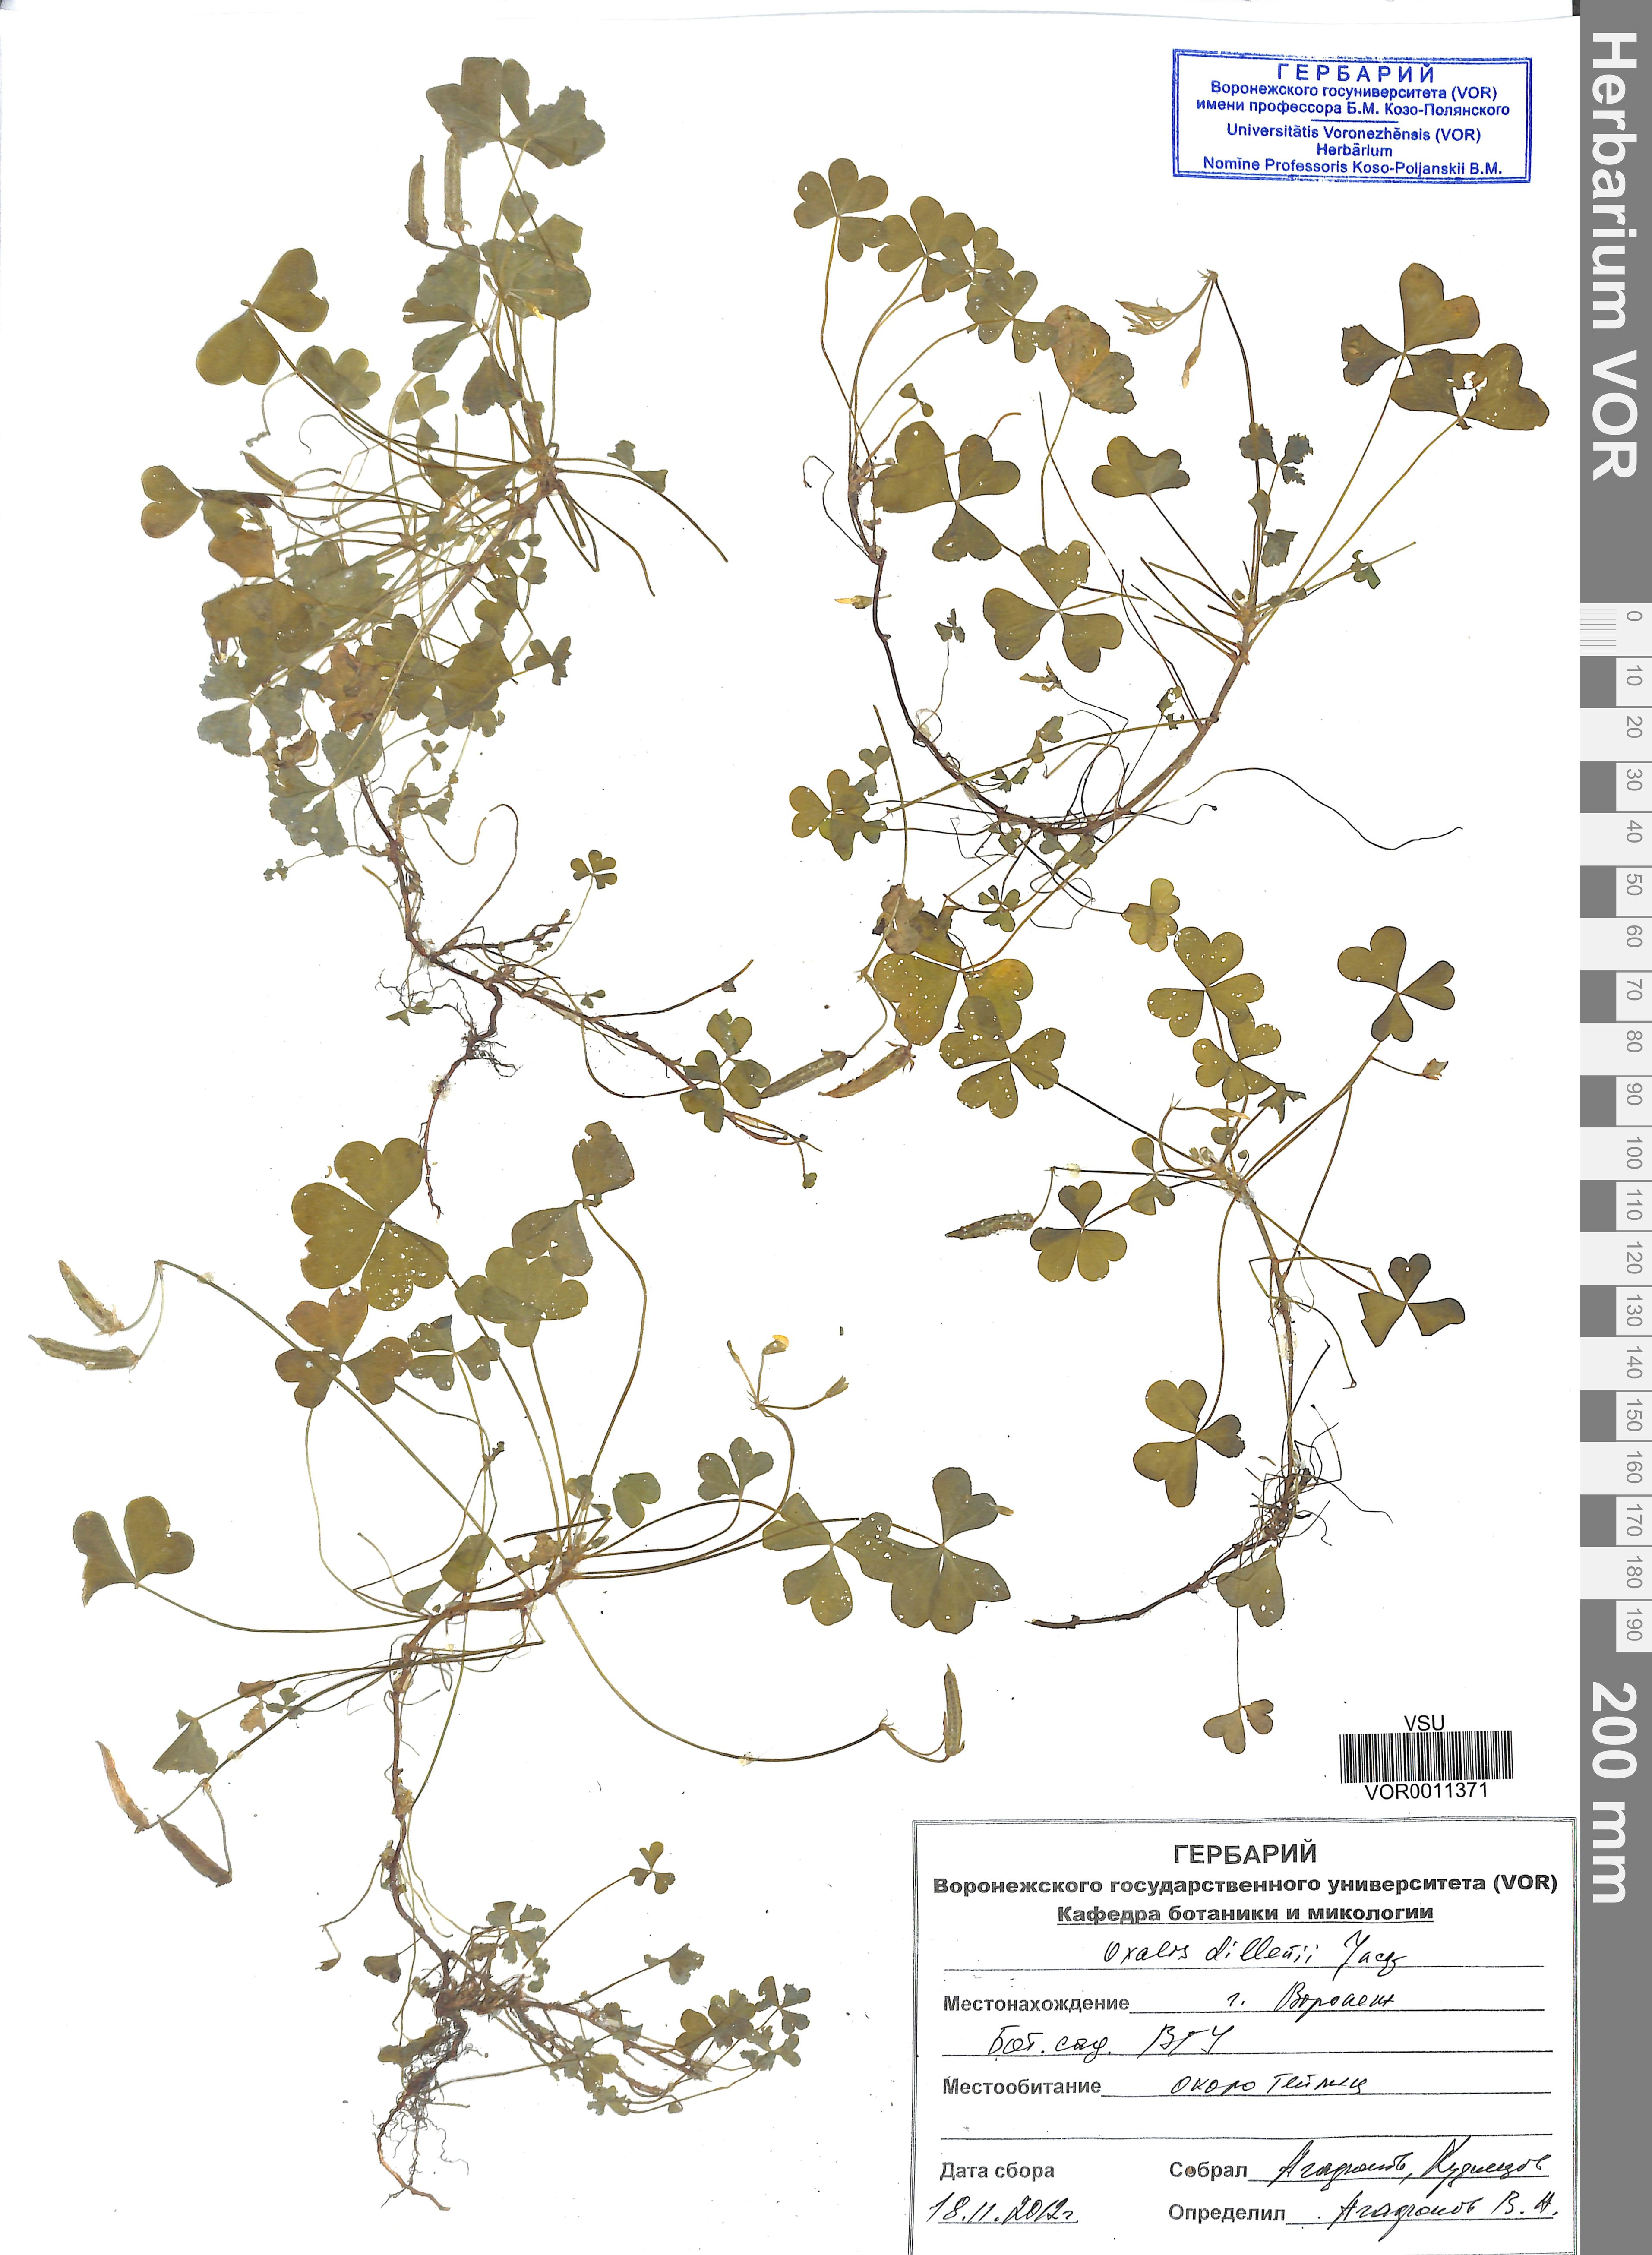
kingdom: Plantae
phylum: Tracheophyta
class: Magnoliopsida
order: Oxalidales
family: Oxalidaceae
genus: Oxalis
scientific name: Oxalis dillenii
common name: Sussex yellow-sorrel
